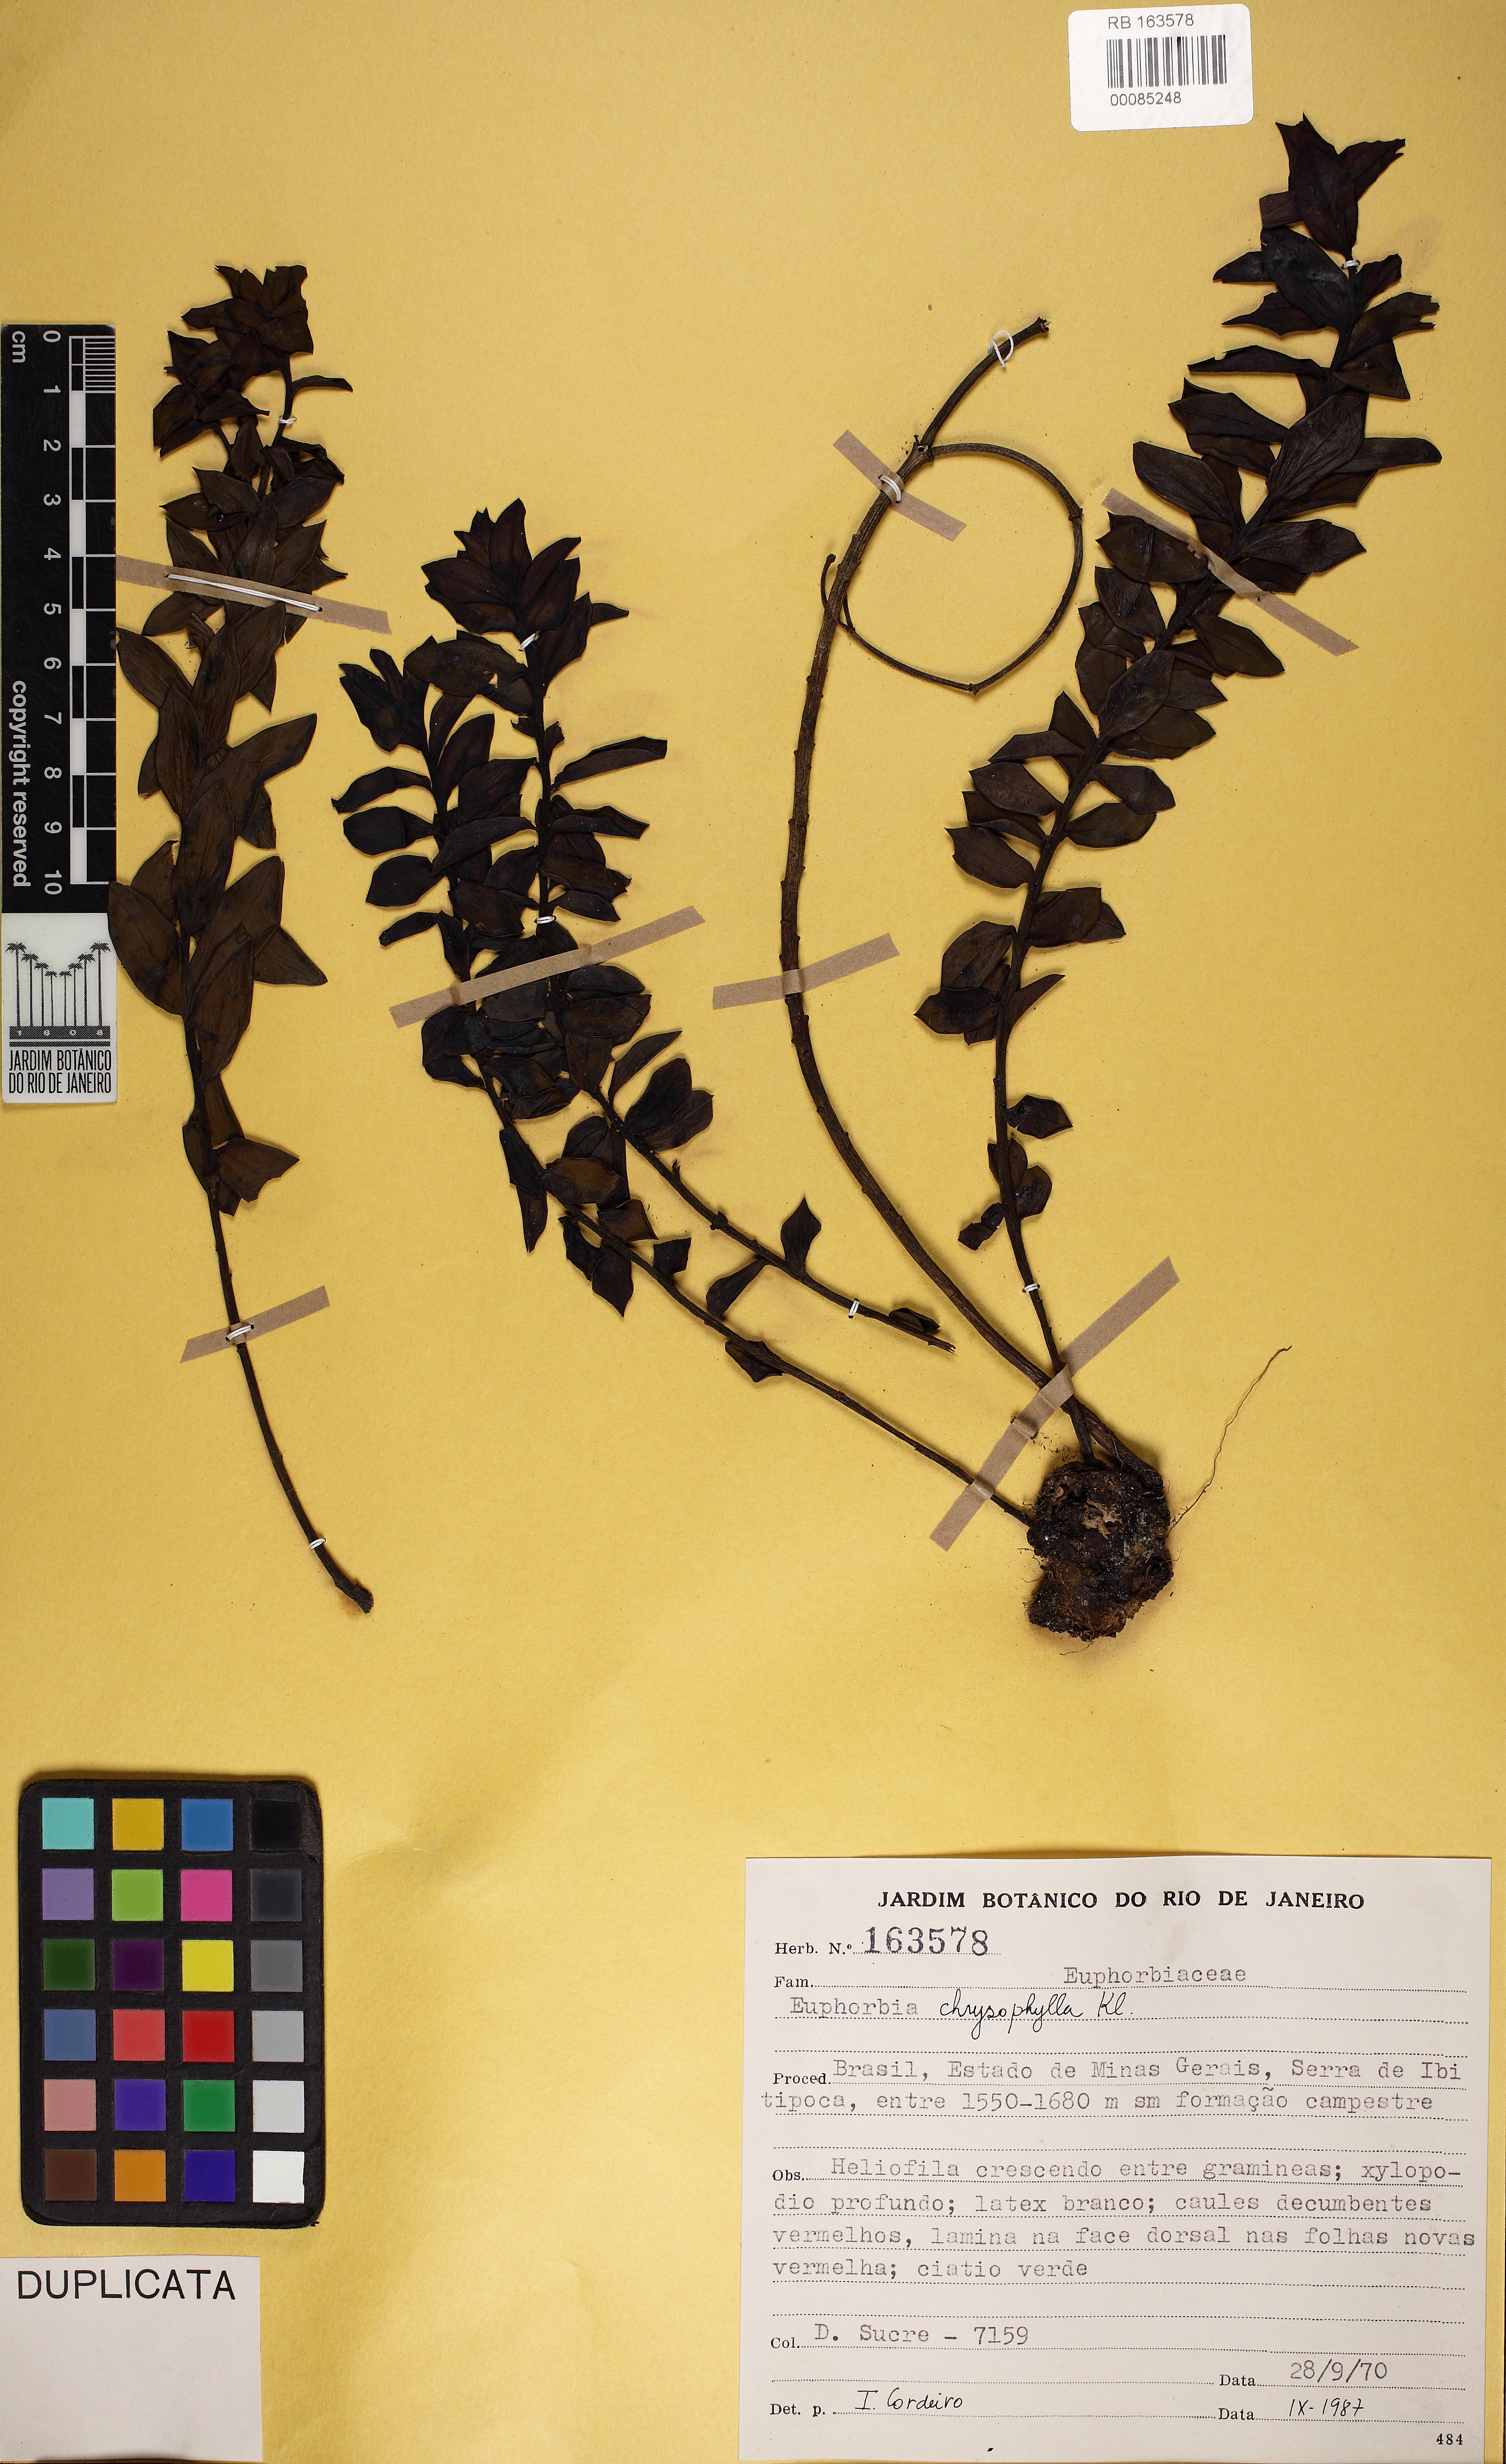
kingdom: Plantae
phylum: Tracheophyta
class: Magnoliopsida
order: Malpighiales
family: Euphorbiaceae
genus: Euphorbia
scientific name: Euphorbia chrysophylla
